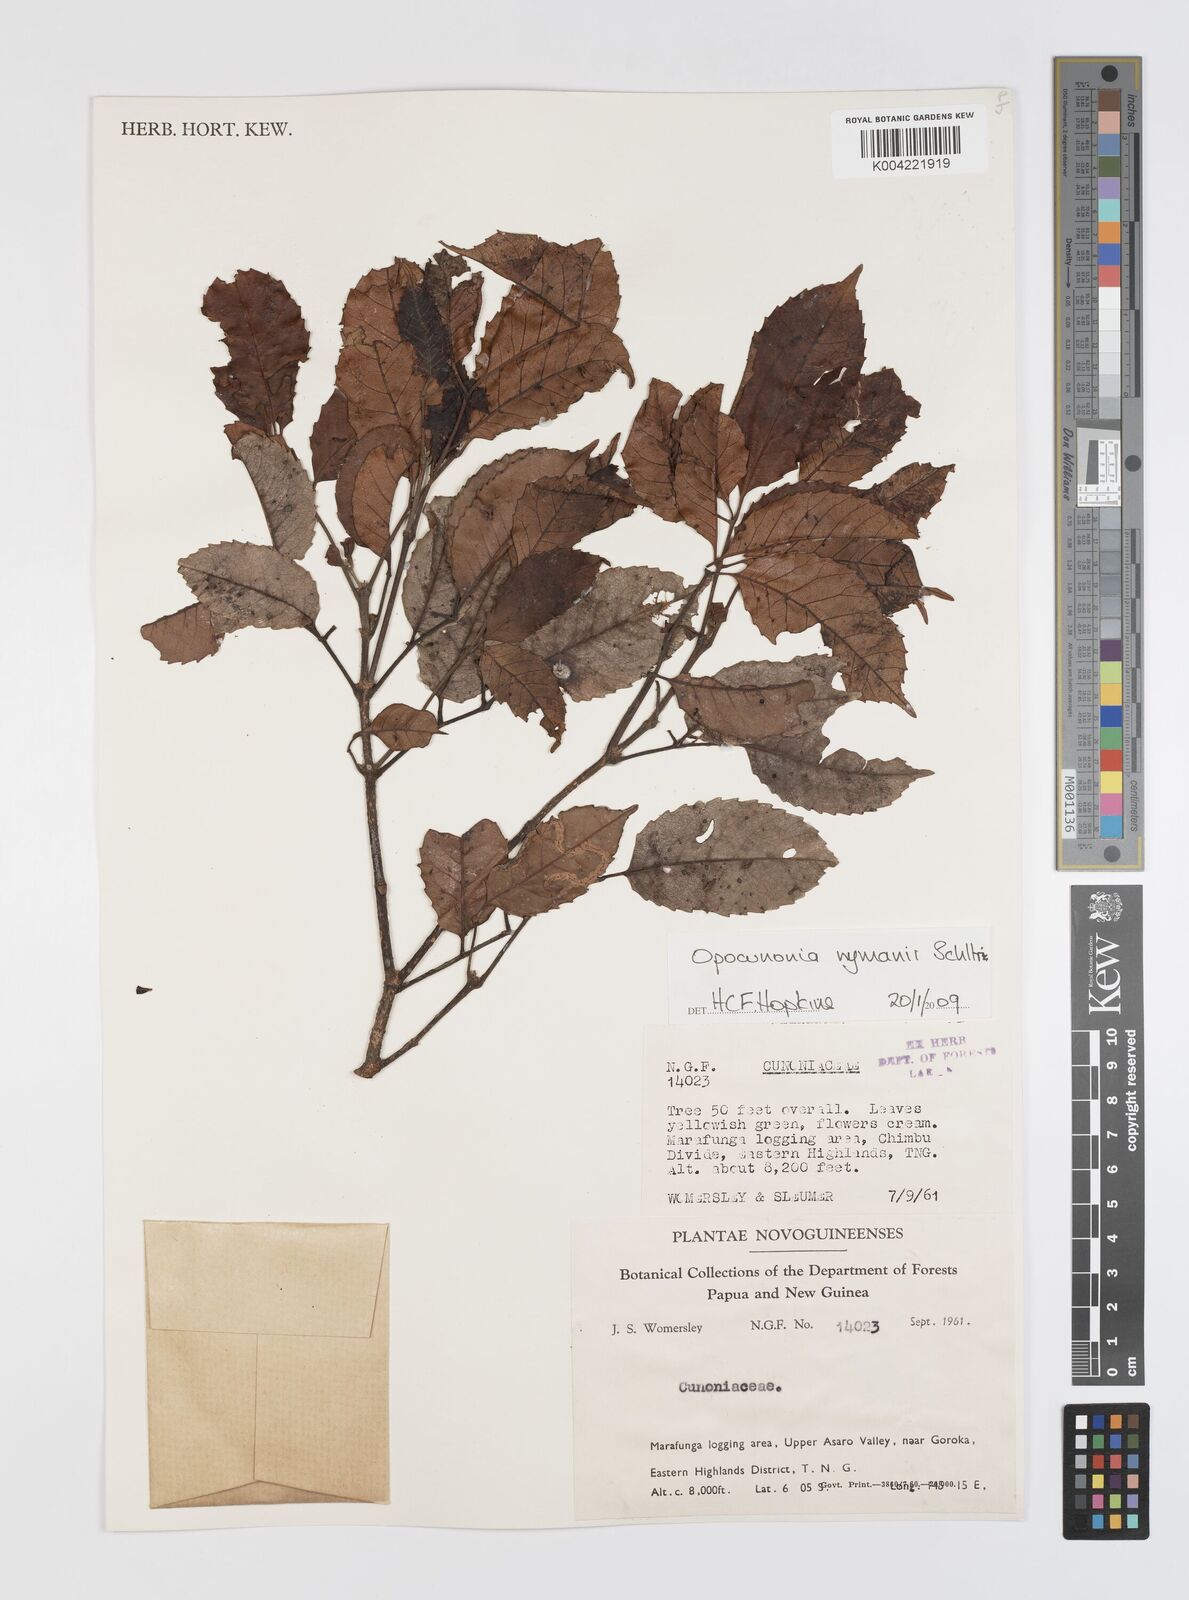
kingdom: Plantae
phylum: Tracheophyta
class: Magnoliopsida
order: Oxalidales
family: Cunoniaceae
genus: Opocunonia
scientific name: Opocunonia nymanii
